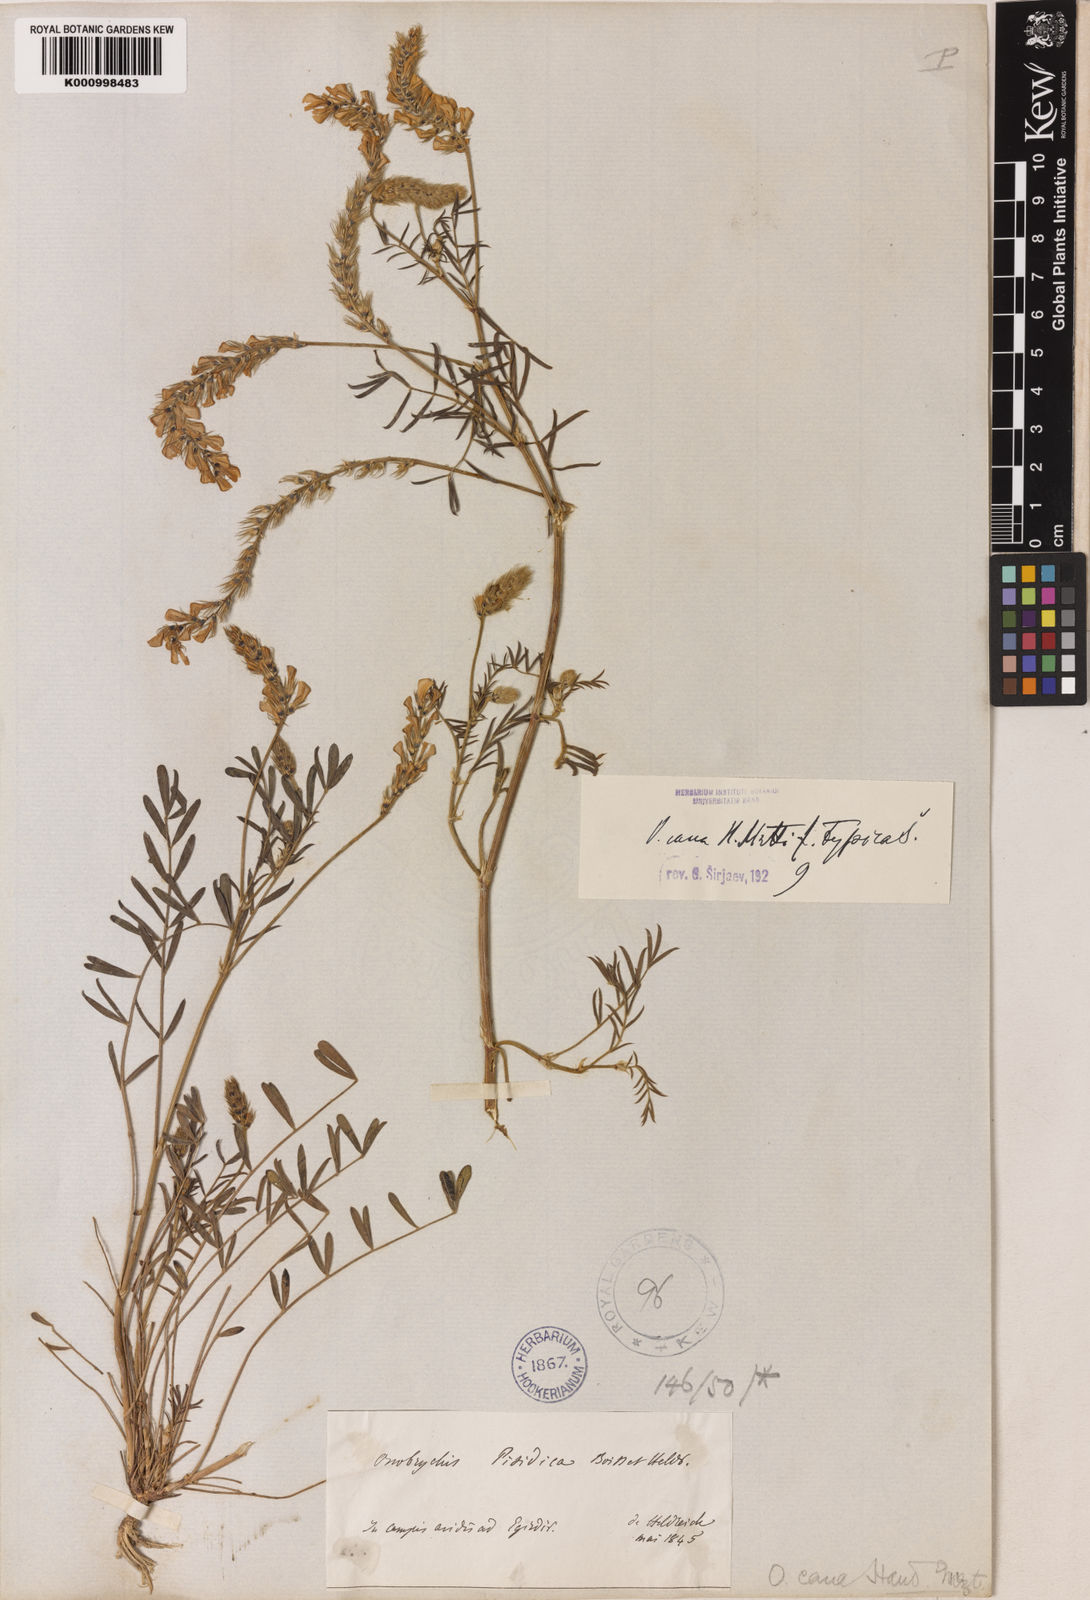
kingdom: Plantae
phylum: Tracheophyta
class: Magnoliopsida
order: Fabales
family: Fabaceae
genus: Onobrychis
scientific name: Onobrychis arenaria
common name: Sand esparcet
